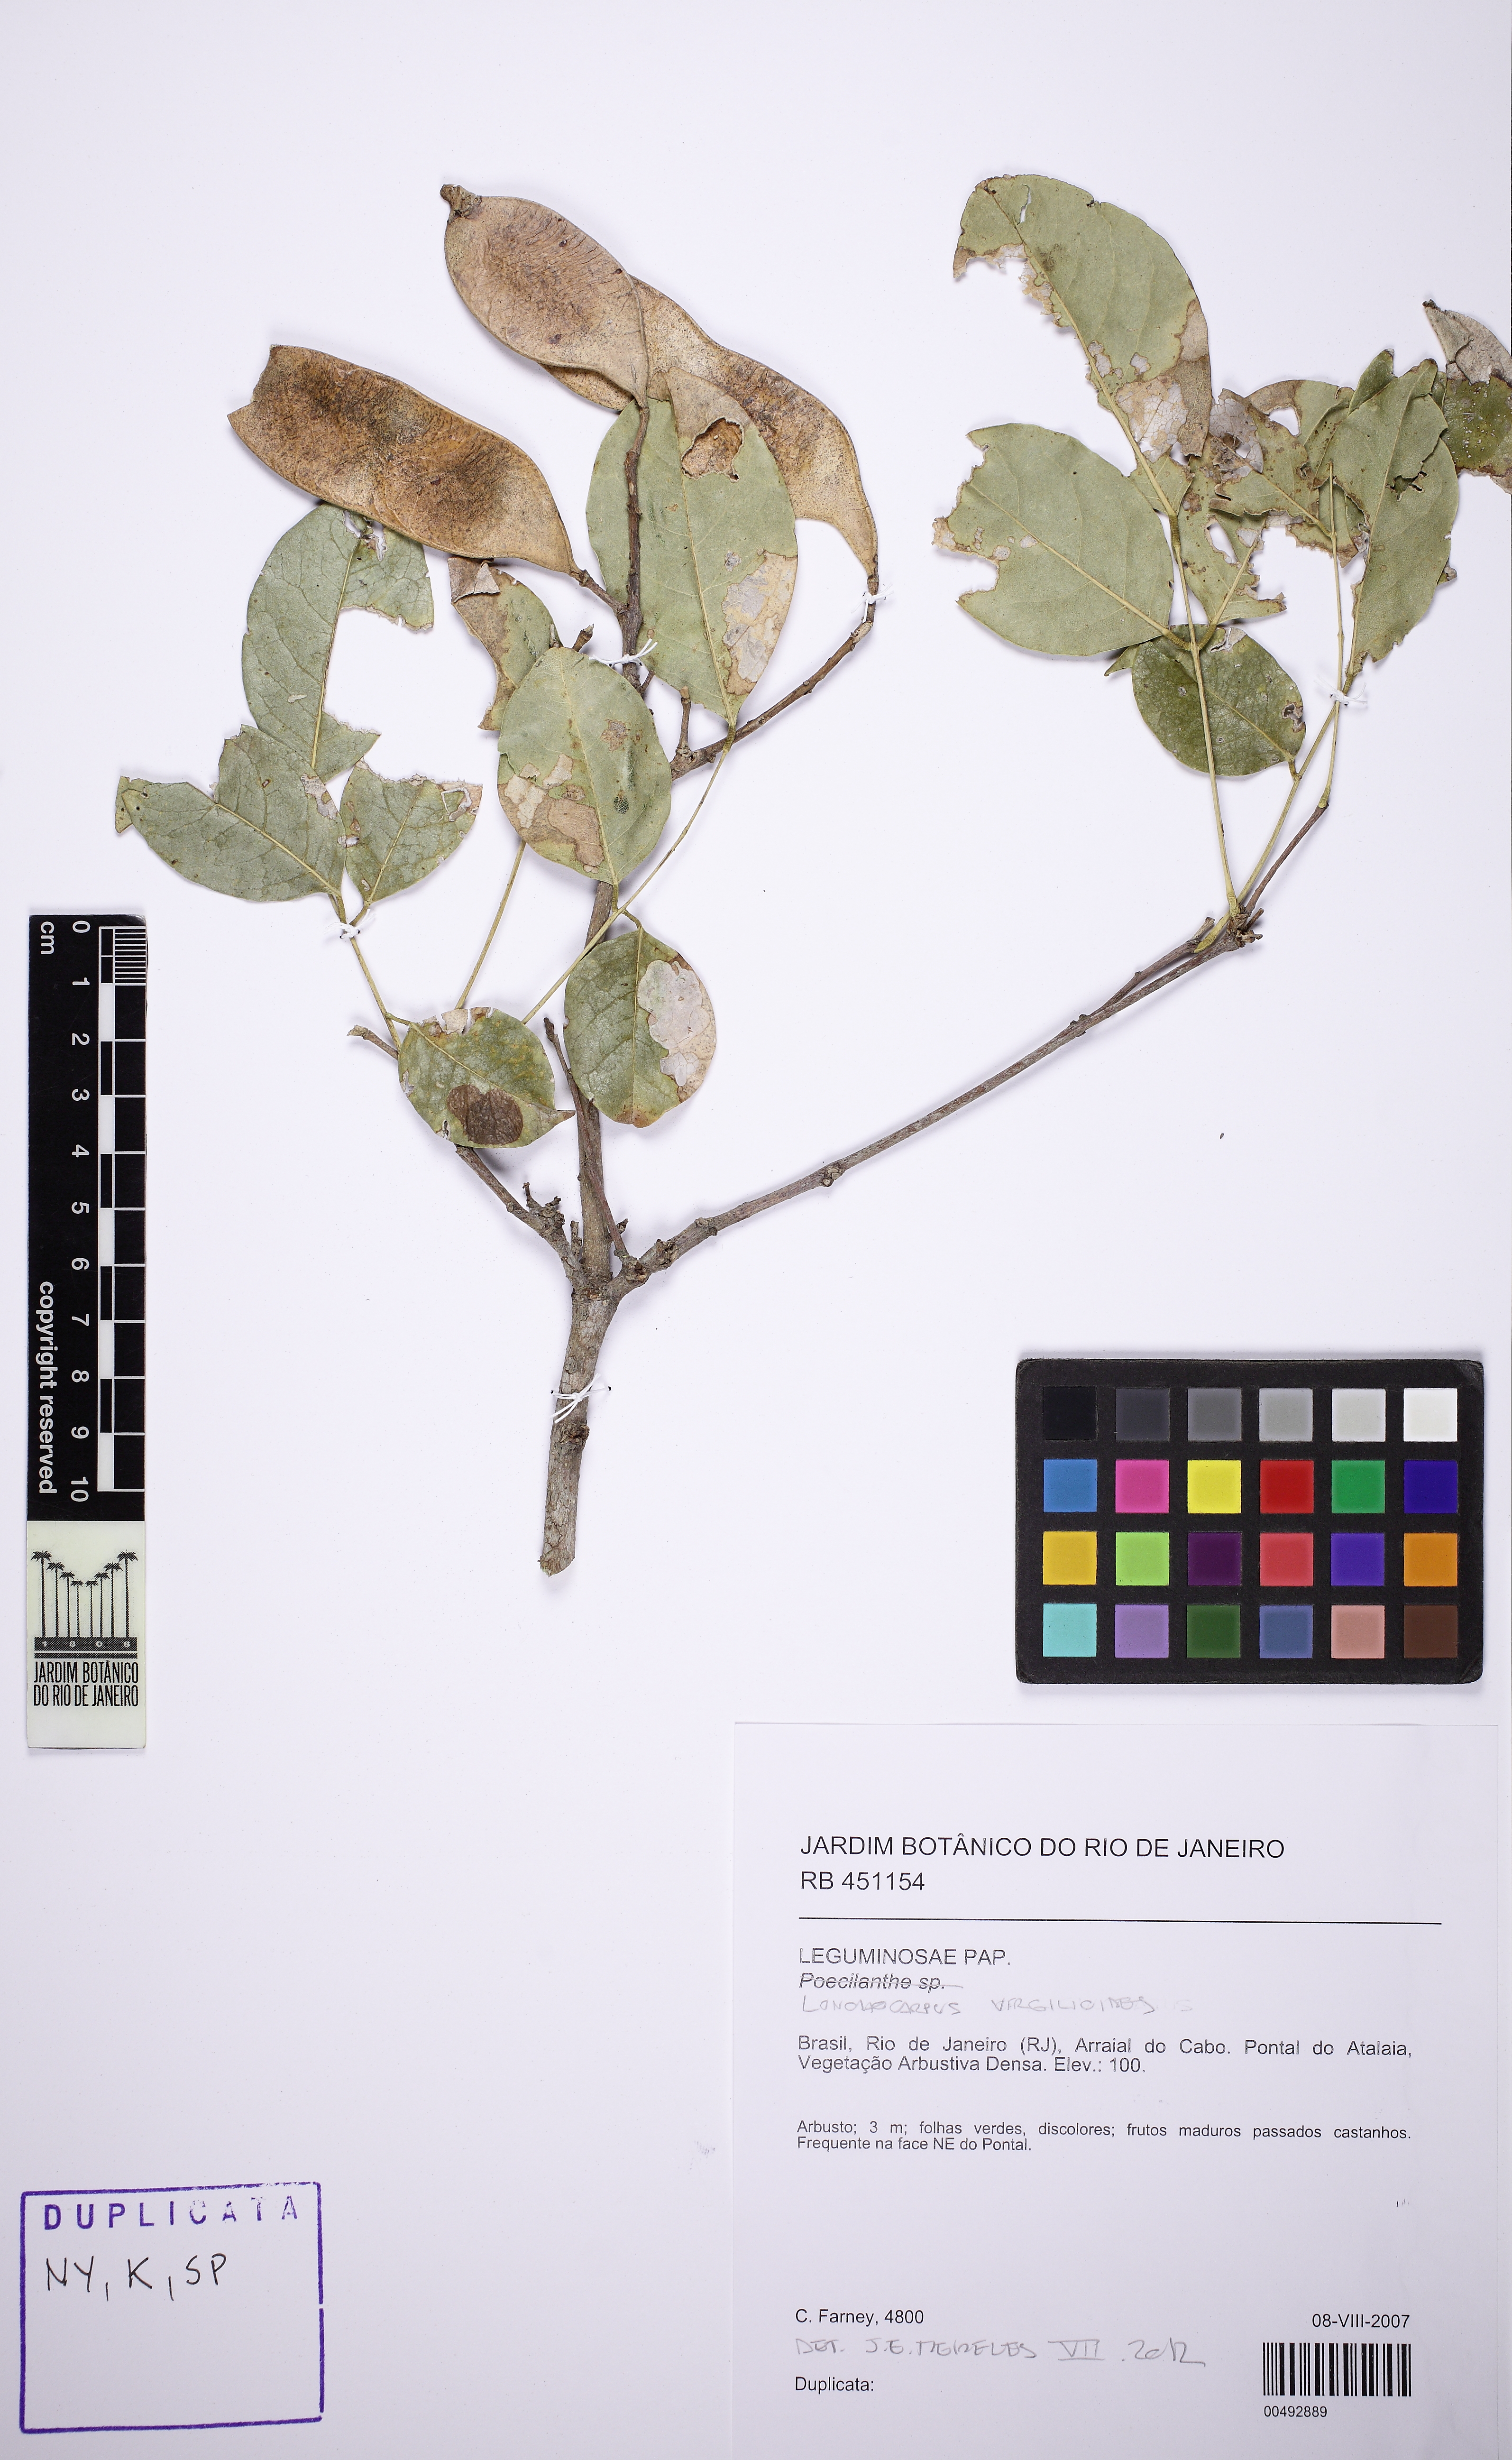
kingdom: Plantae
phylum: Tracheophyta
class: Magnoliopsida
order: Fabales
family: Fabaceae
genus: Muellera
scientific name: Muellera virgilioides
